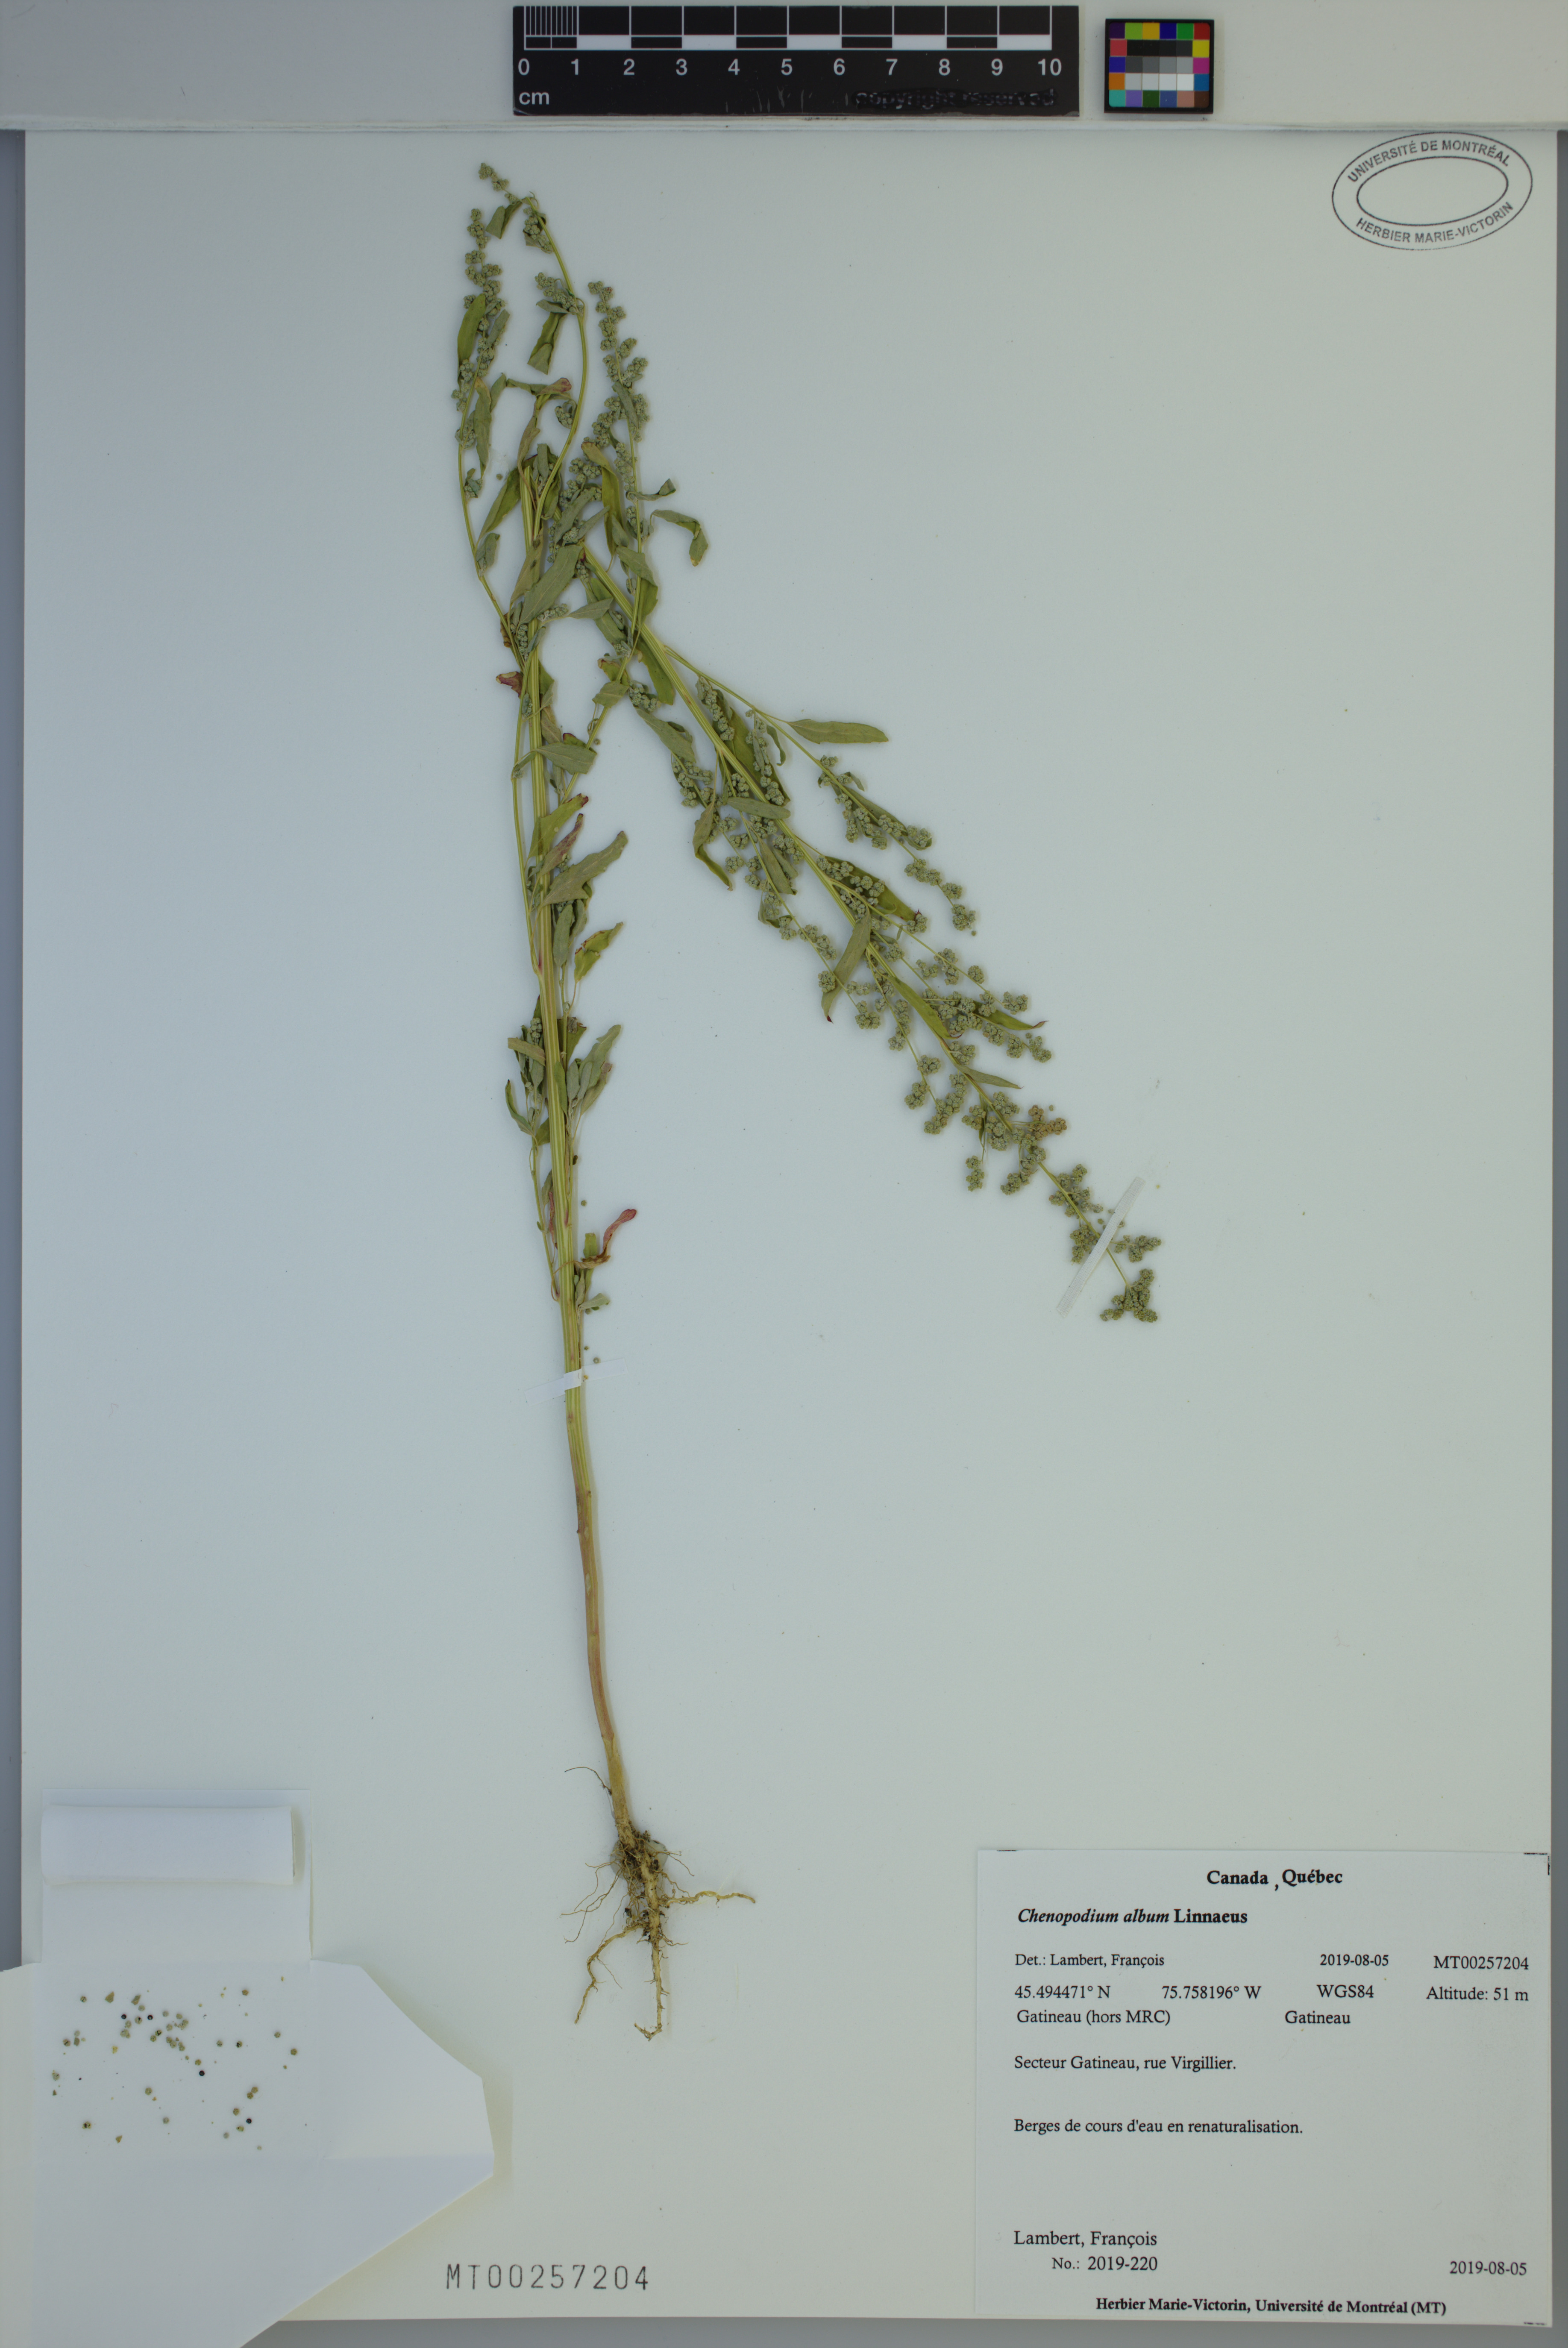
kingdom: Plantae
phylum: Tracheophyta
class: Magnoliopsida
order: Caryophyllales
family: Amaranthaceae
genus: Chenopodium
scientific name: Chenopodium album
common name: Fat-hen
